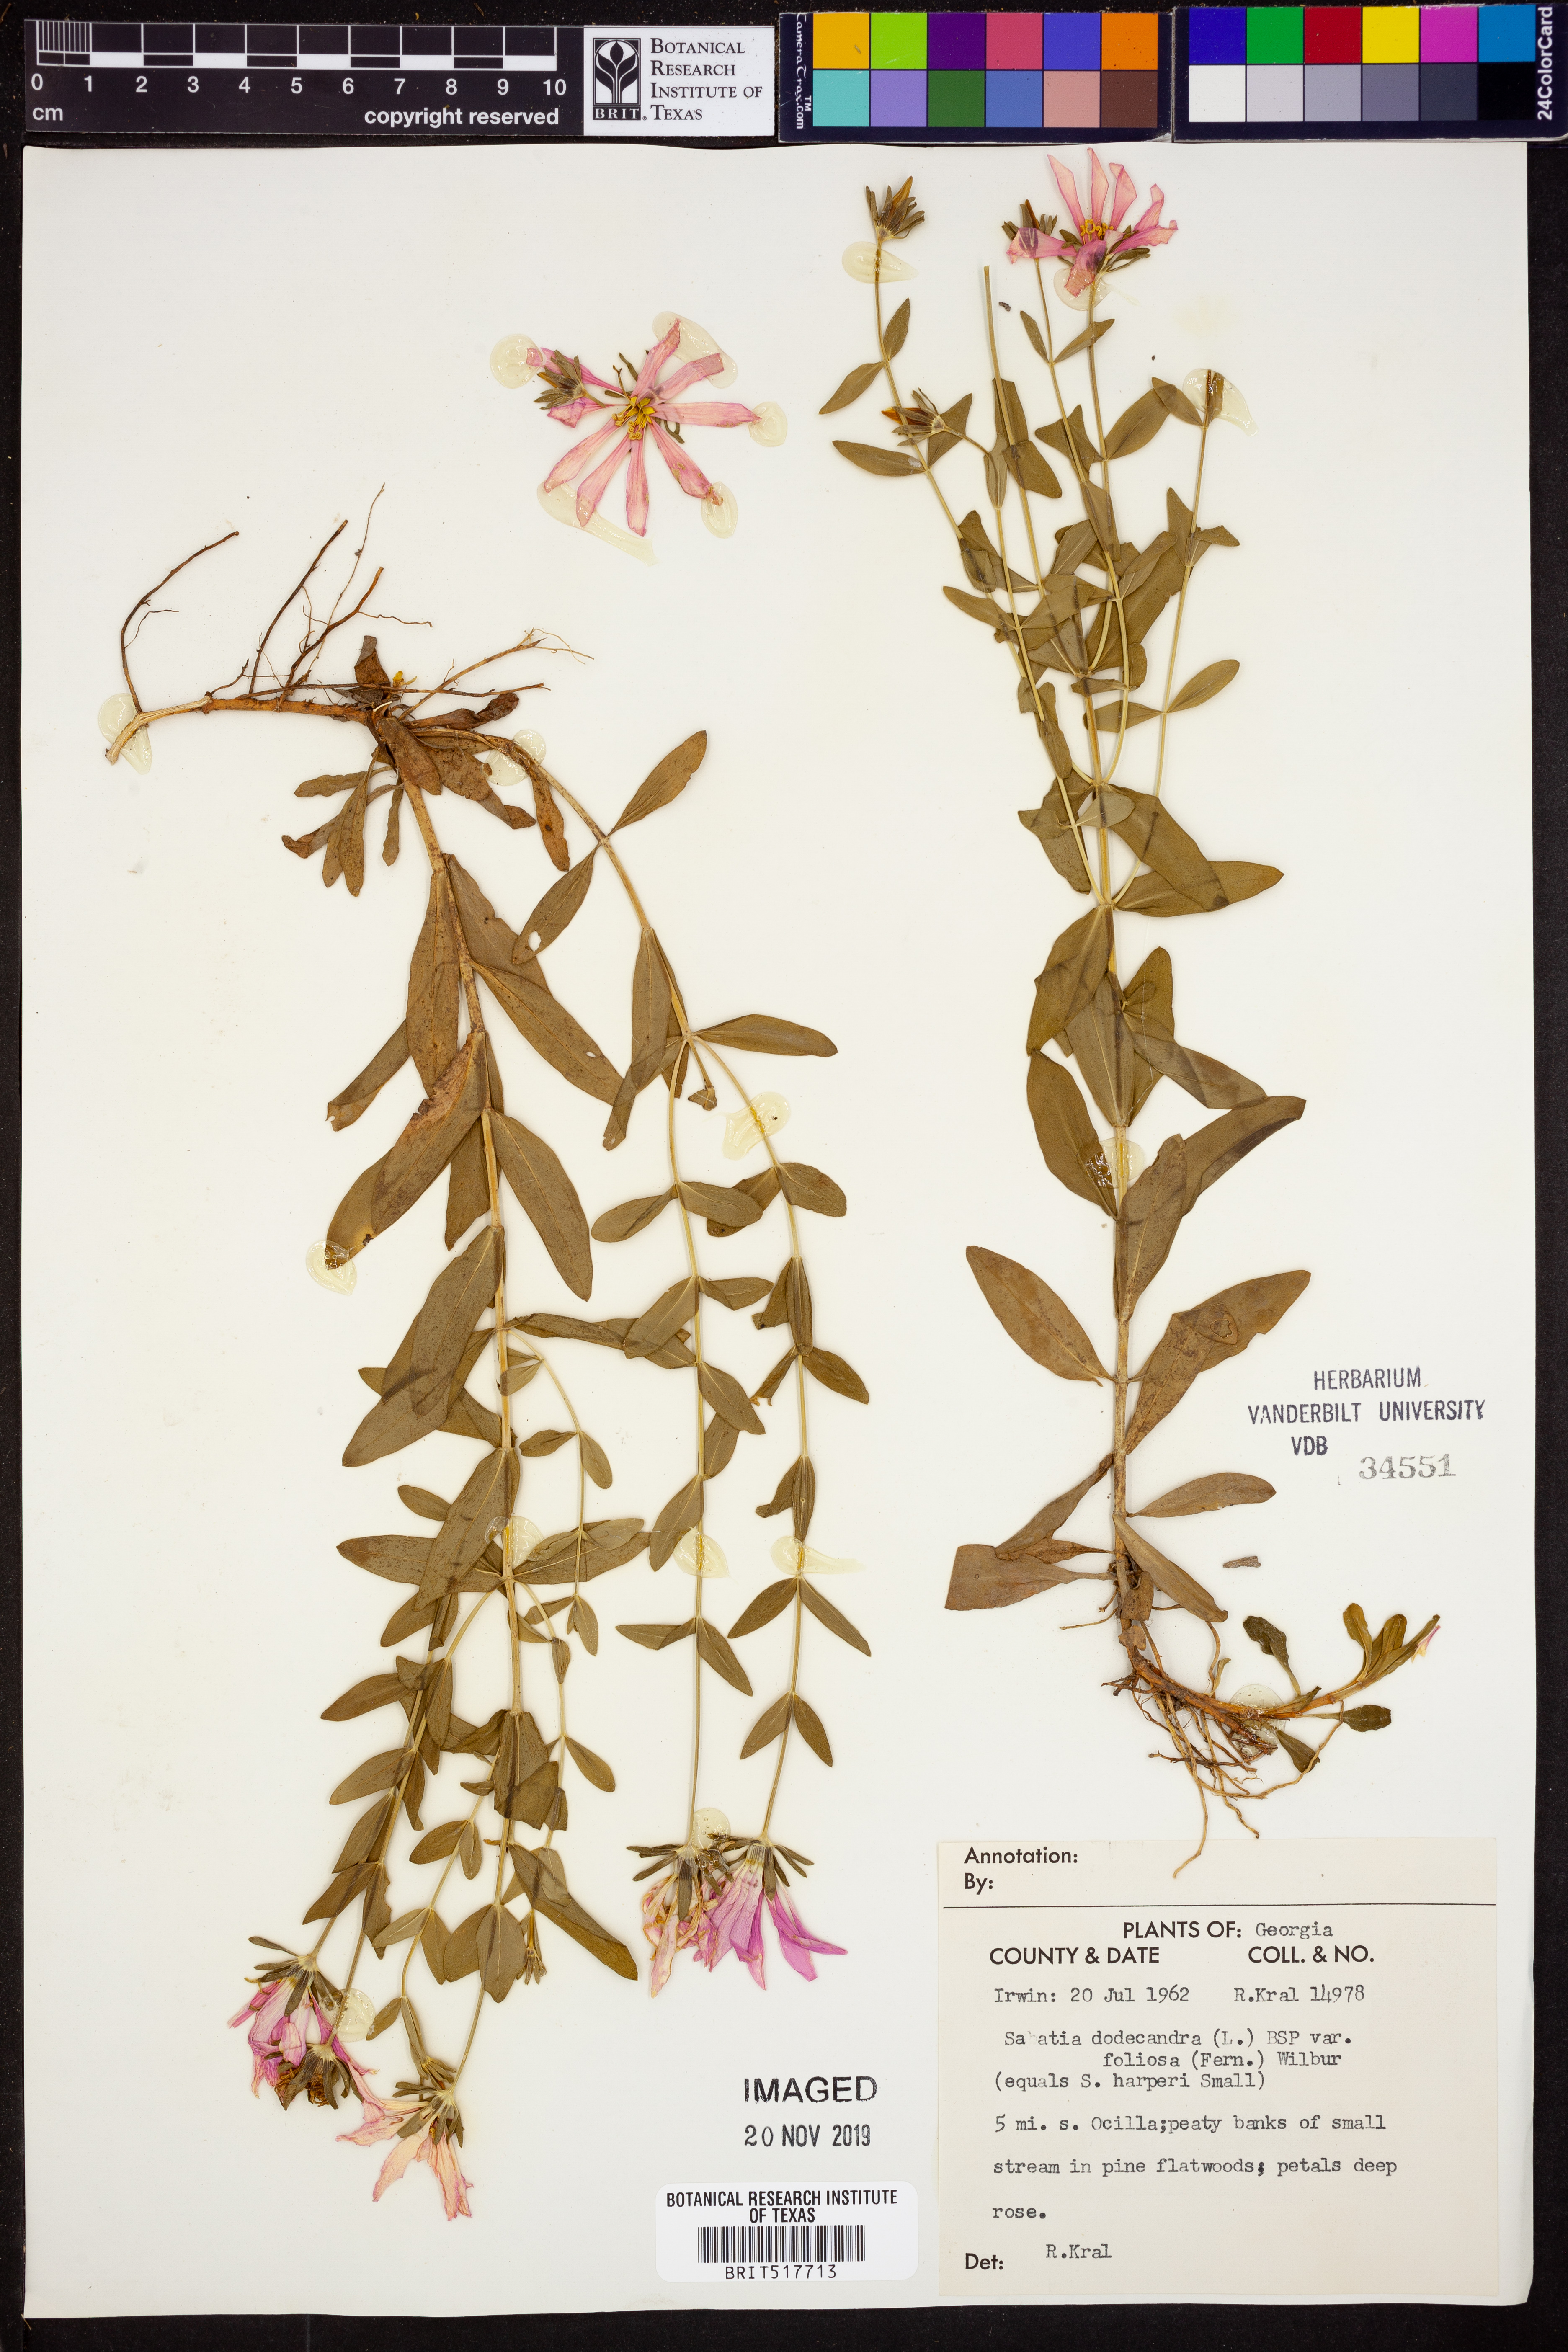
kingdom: Plantae
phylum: Tracheophyta
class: Magnoliopsida
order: Gentianales
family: Gentianaceae
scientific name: Gentianaceae
